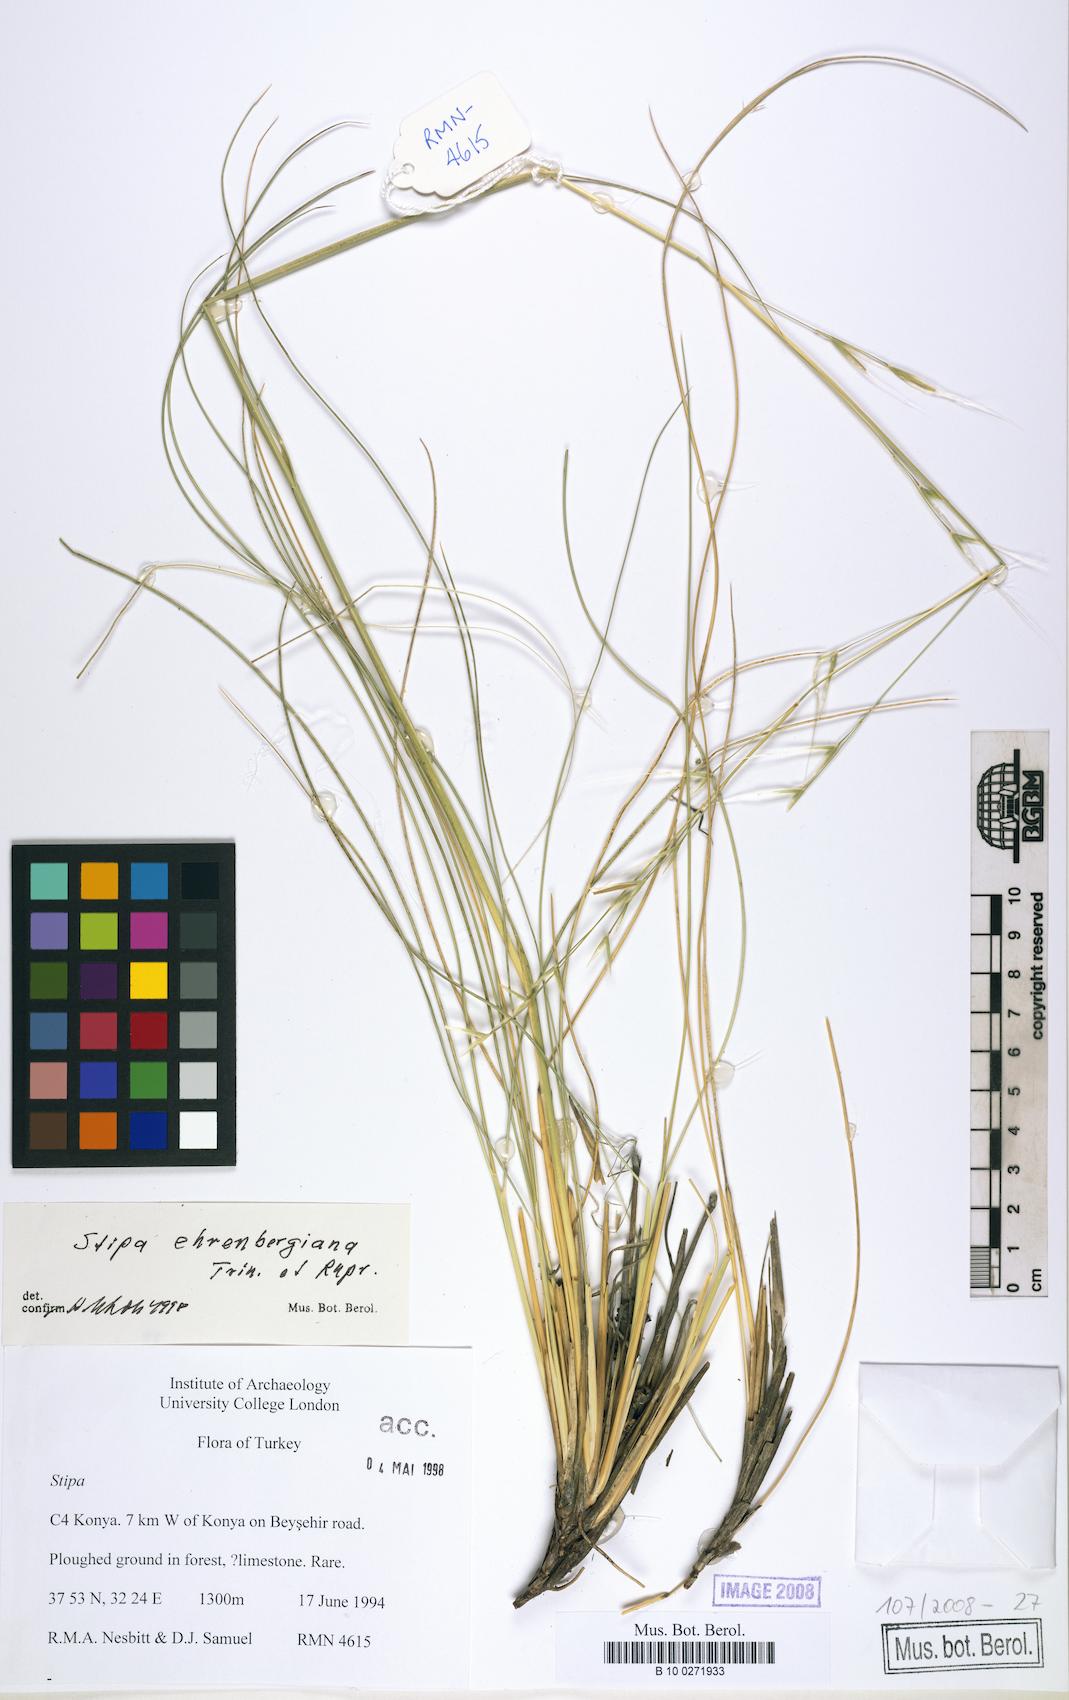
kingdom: Plantae
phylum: Tracheophyta
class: Liliopsida
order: Poales
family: Poaceae
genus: Stipa
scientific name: Stipa ehrenbergiana
